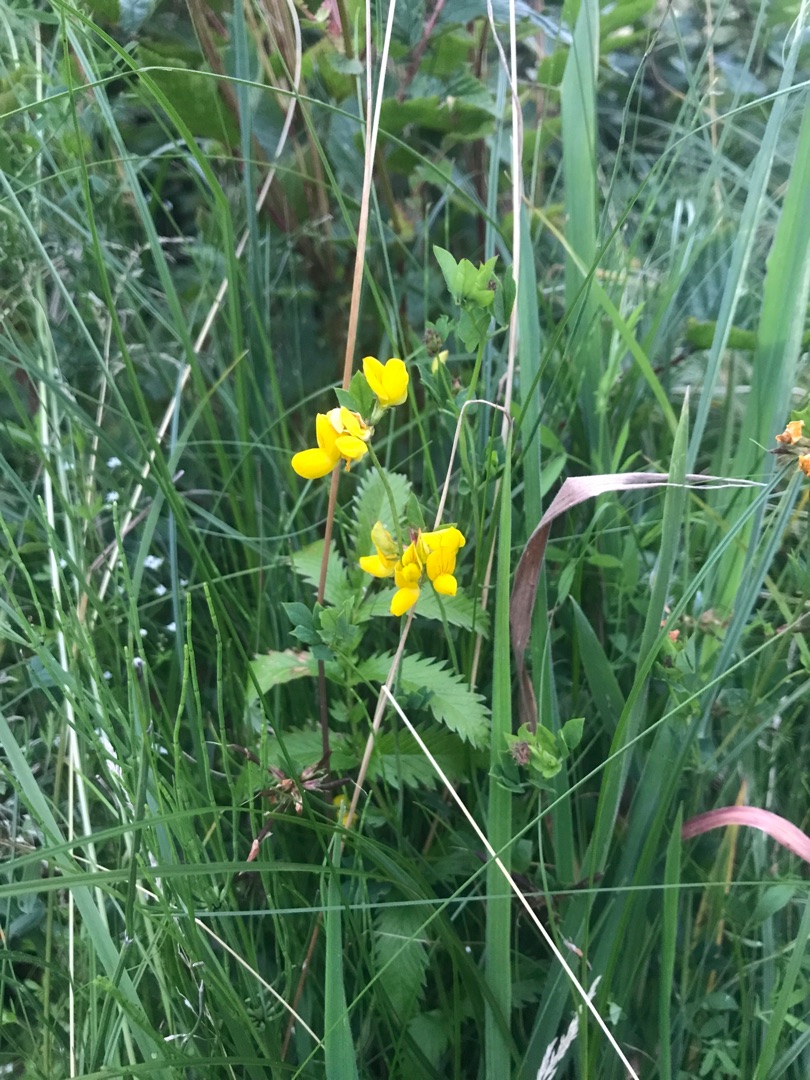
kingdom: Plantae
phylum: Tracheophyta
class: Magnoliopsida
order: Fabales
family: Fabaceae
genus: Lotus
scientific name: Lotus corniculatus
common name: Almindelig kællingetand
